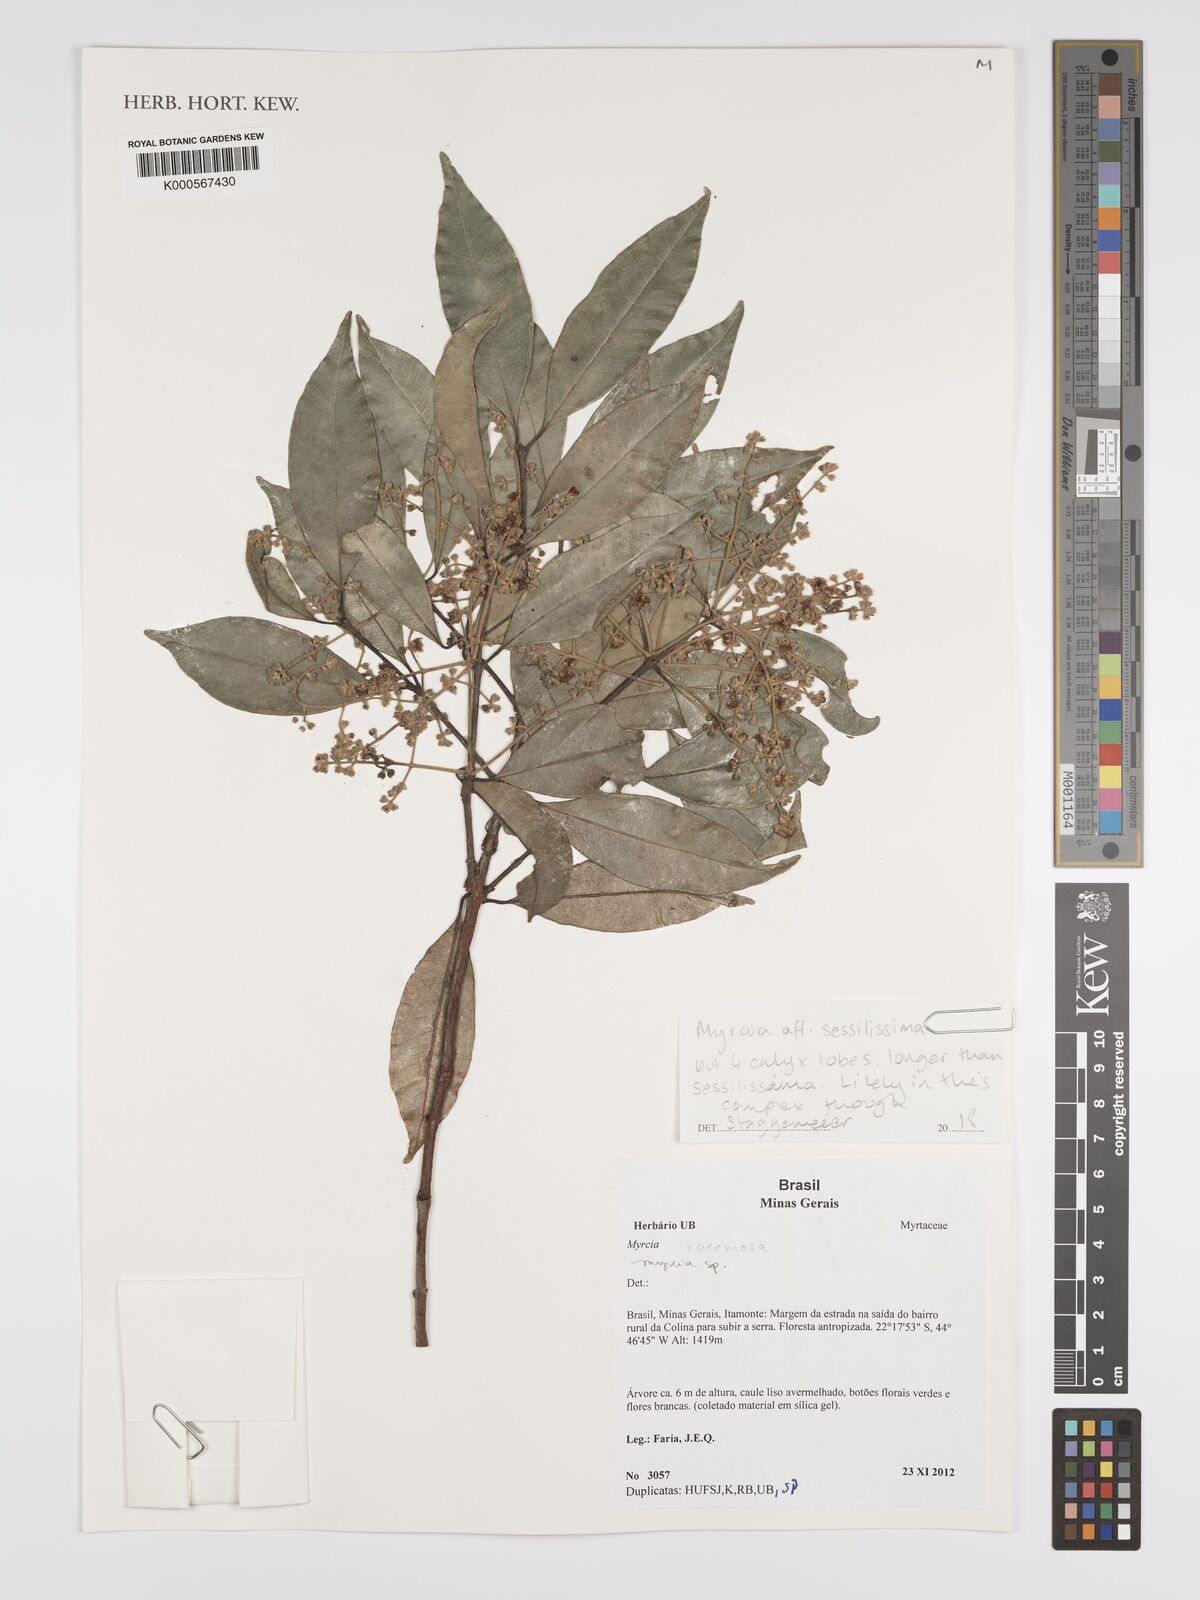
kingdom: Plantae
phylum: Tracheophyta
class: Magnoliopsida
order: Myrtales
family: Myrtaceae
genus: Myrcia
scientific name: Myrcia sessilissima
